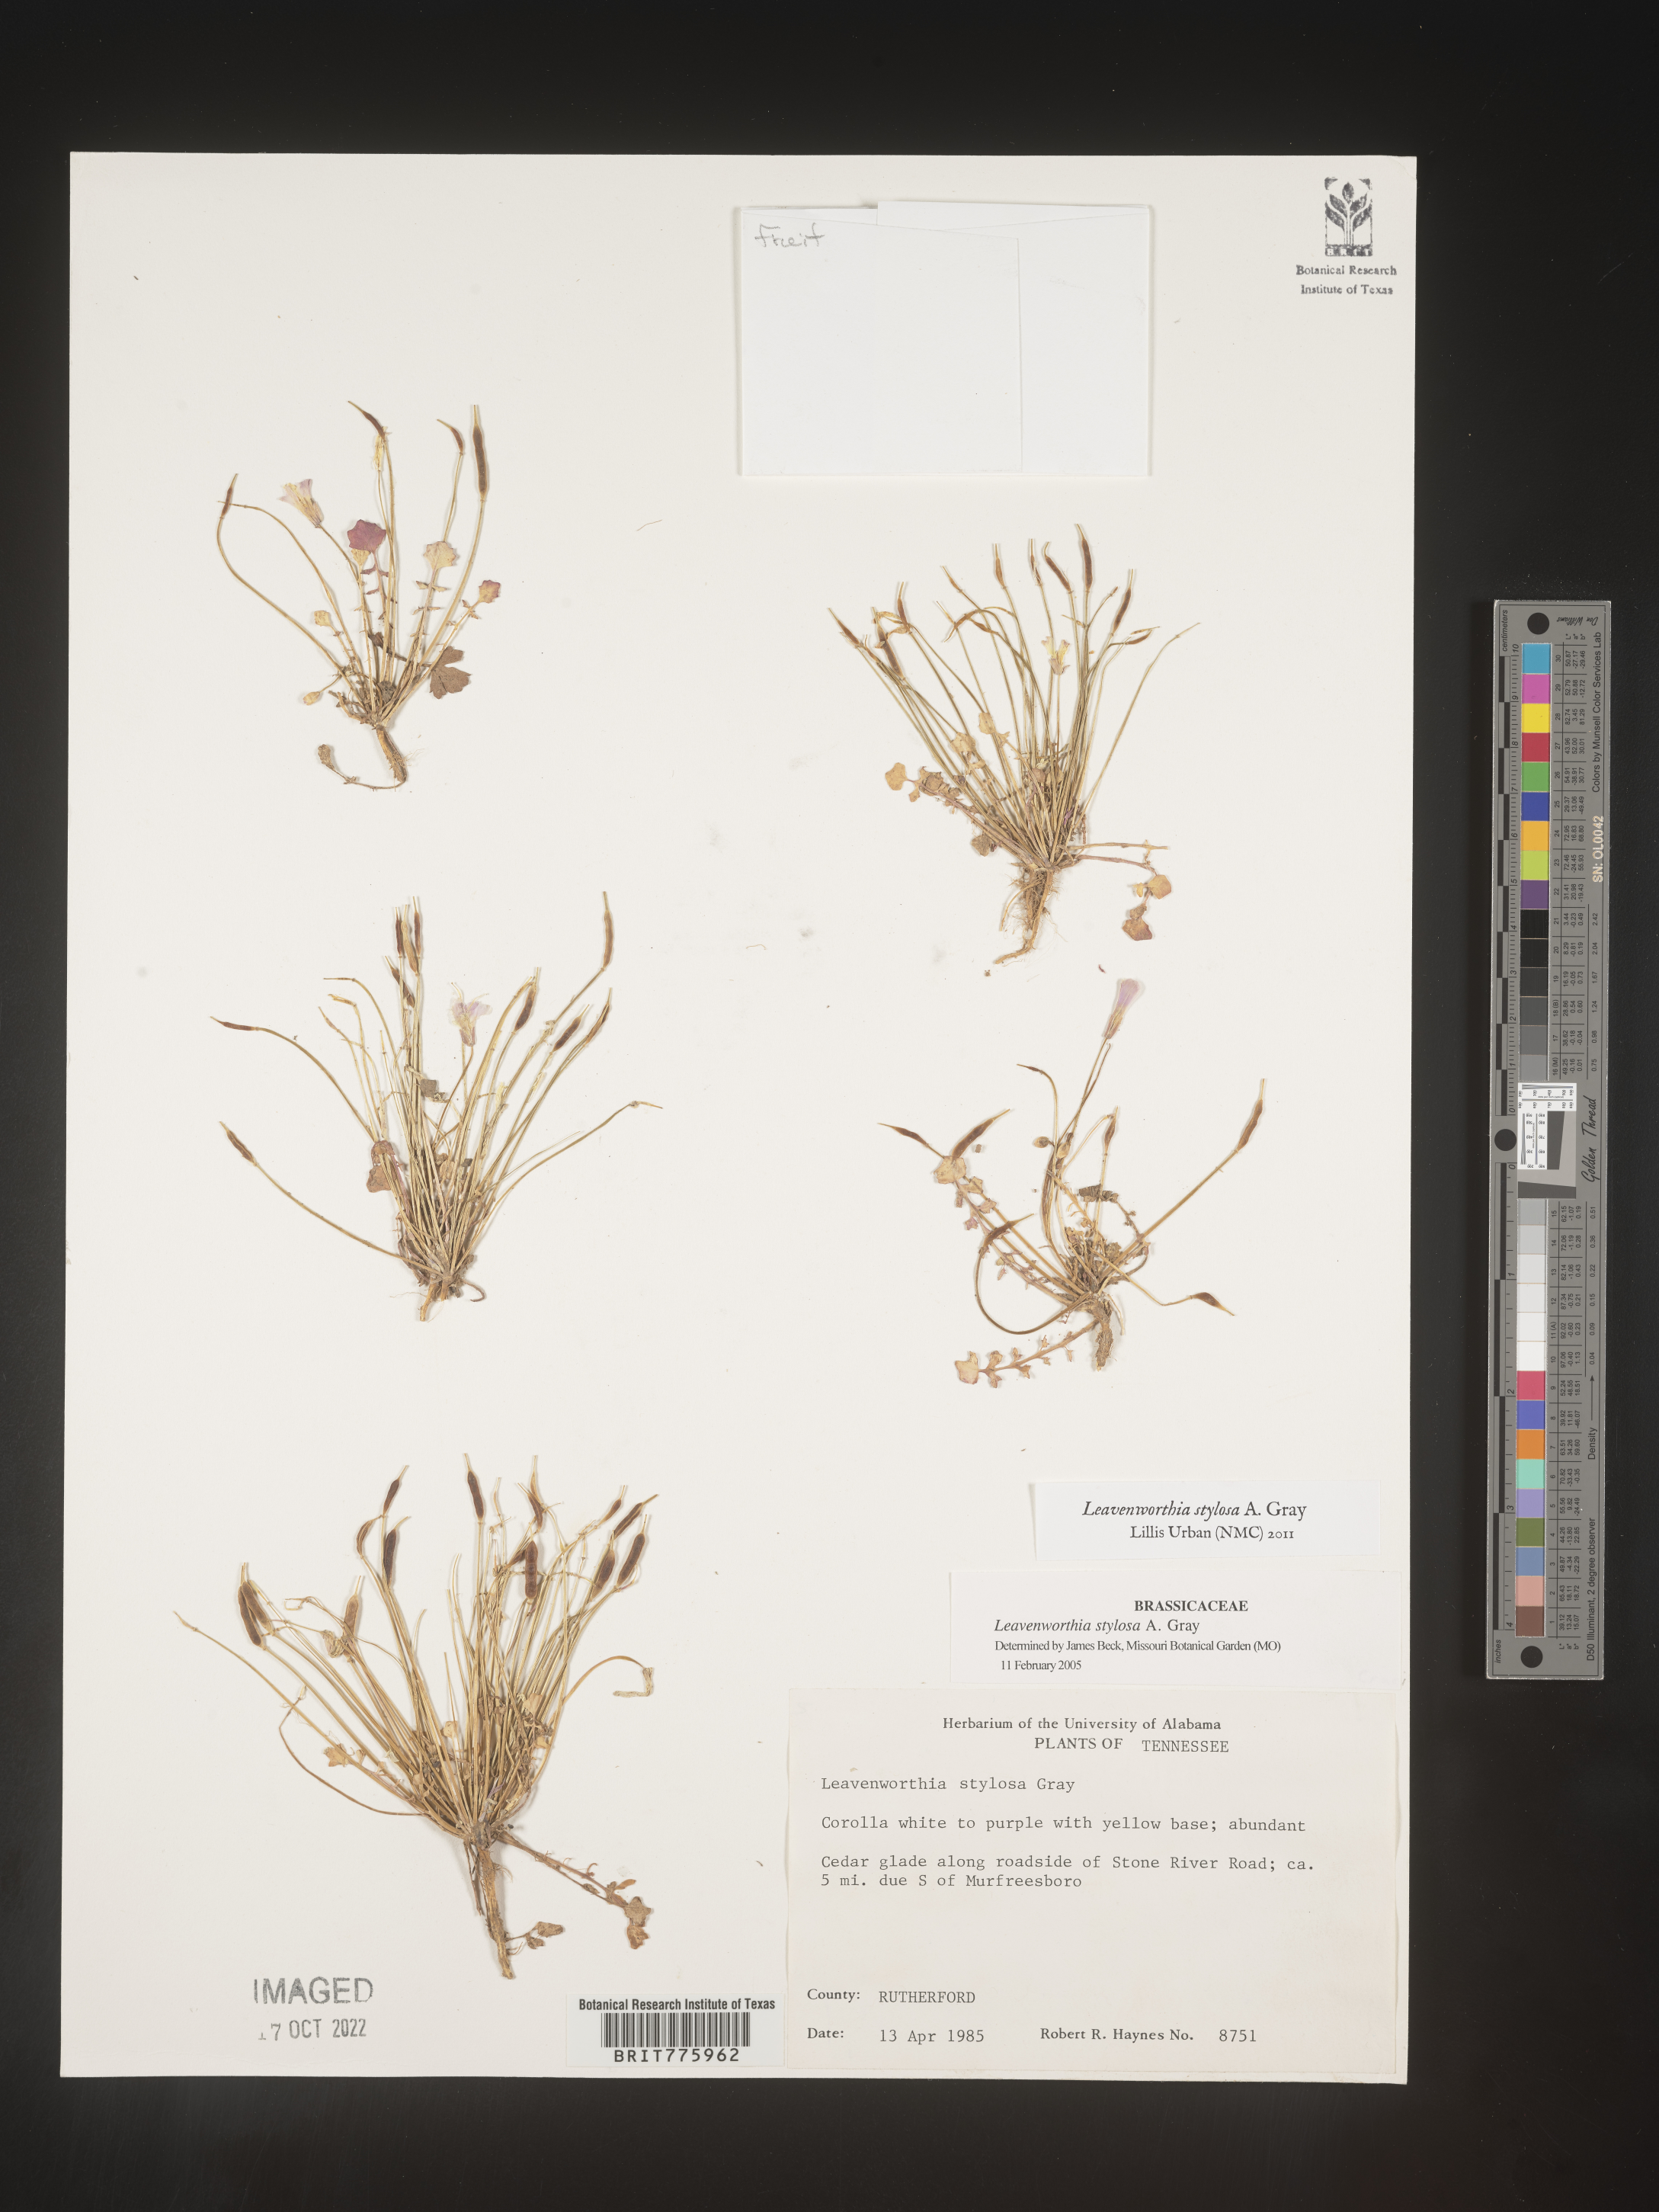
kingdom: Plantae
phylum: Tracheophyta
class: Magnoliopsida
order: Brassicales
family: Brassicaceae
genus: Leavenworthia
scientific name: Leavenworthia
